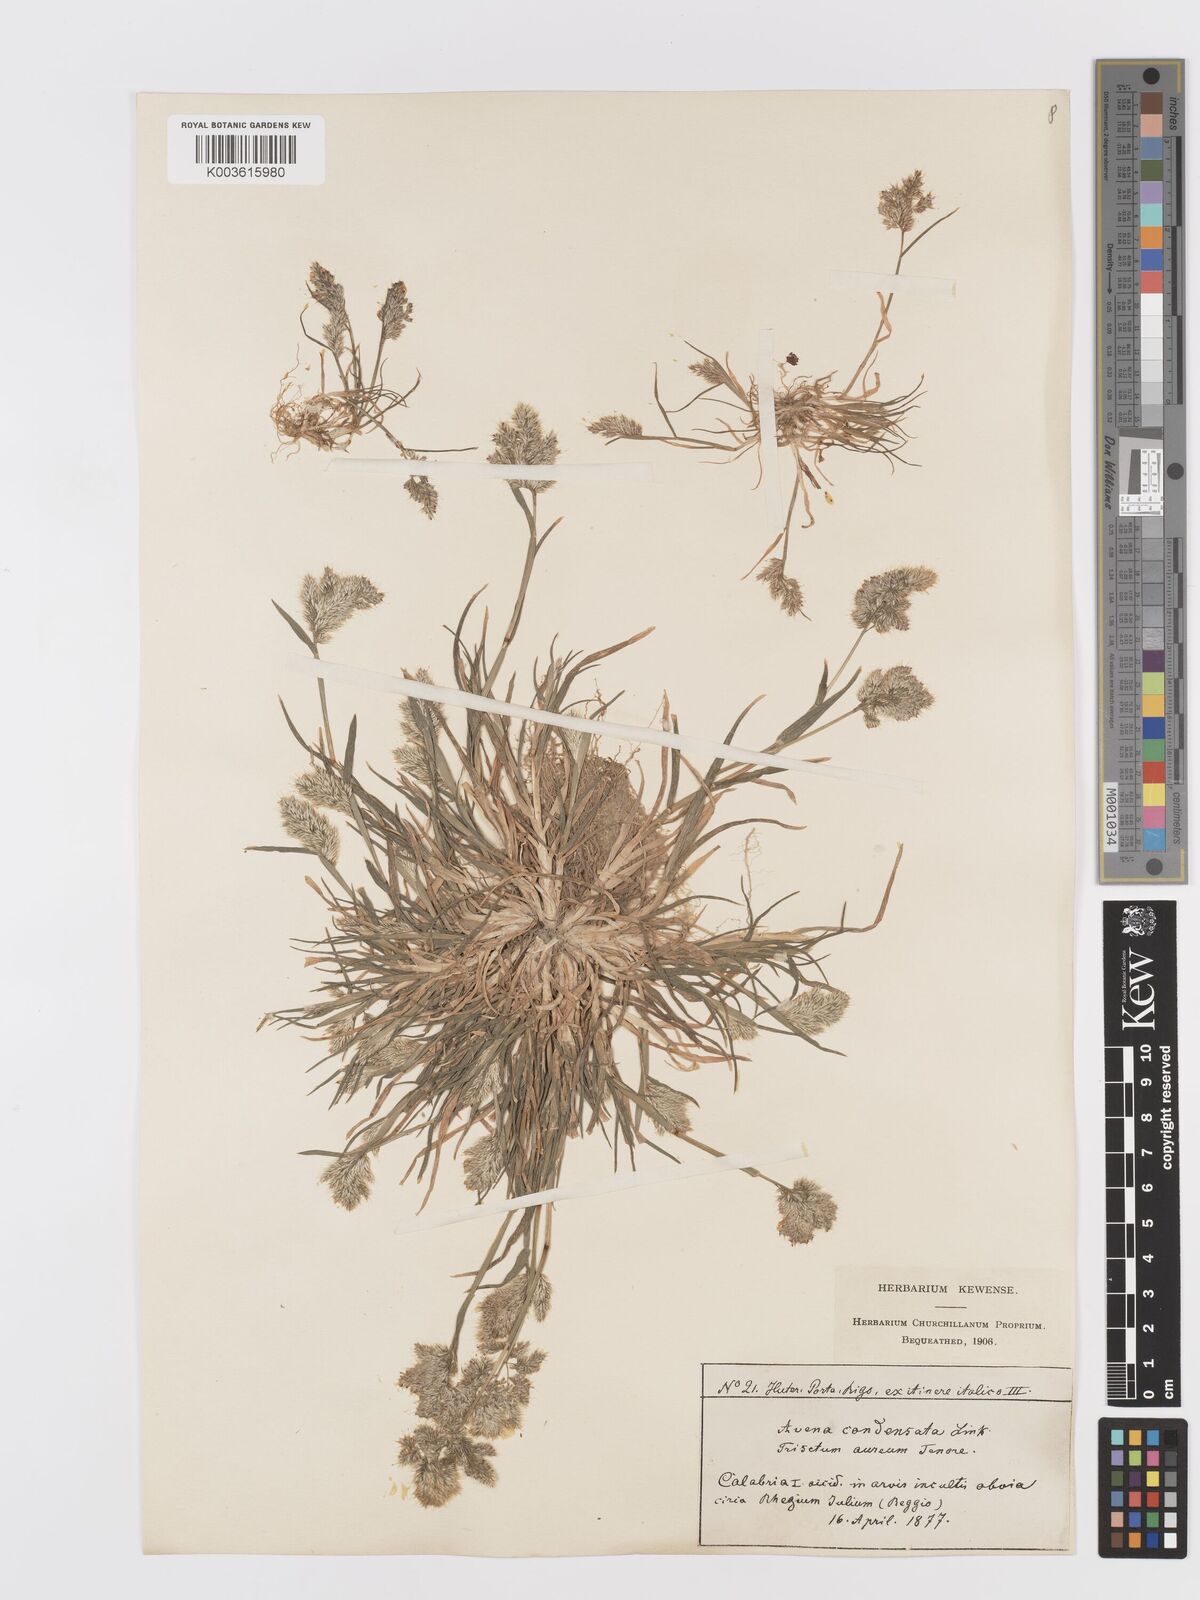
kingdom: Plantae
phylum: Tracheophyta
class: Liliopsida
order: Poales
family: Poaceae
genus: Trisetaria
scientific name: Trisetaria aurea
